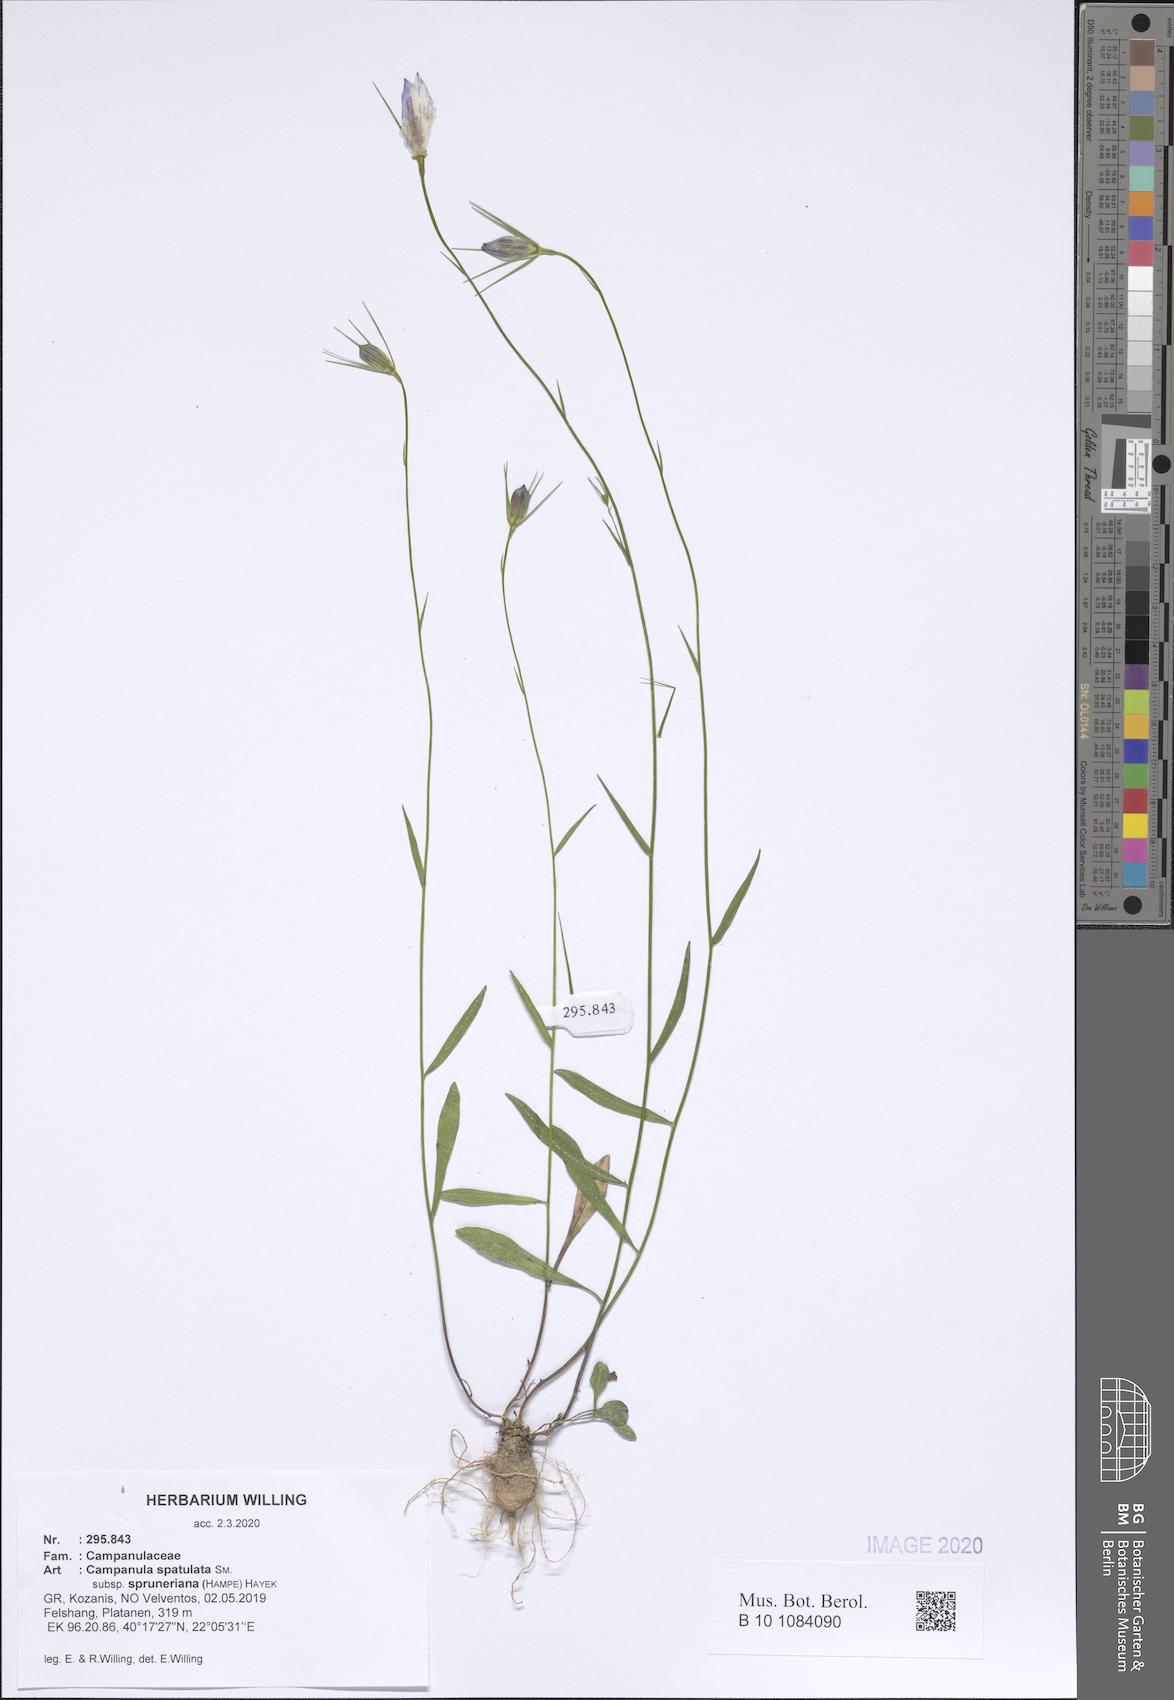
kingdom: Plantae
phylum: Tracheophyta
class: Magnoliopsida
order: Asterales
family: Campanulaceae
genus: Campanula
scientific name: Campanula spatulata
